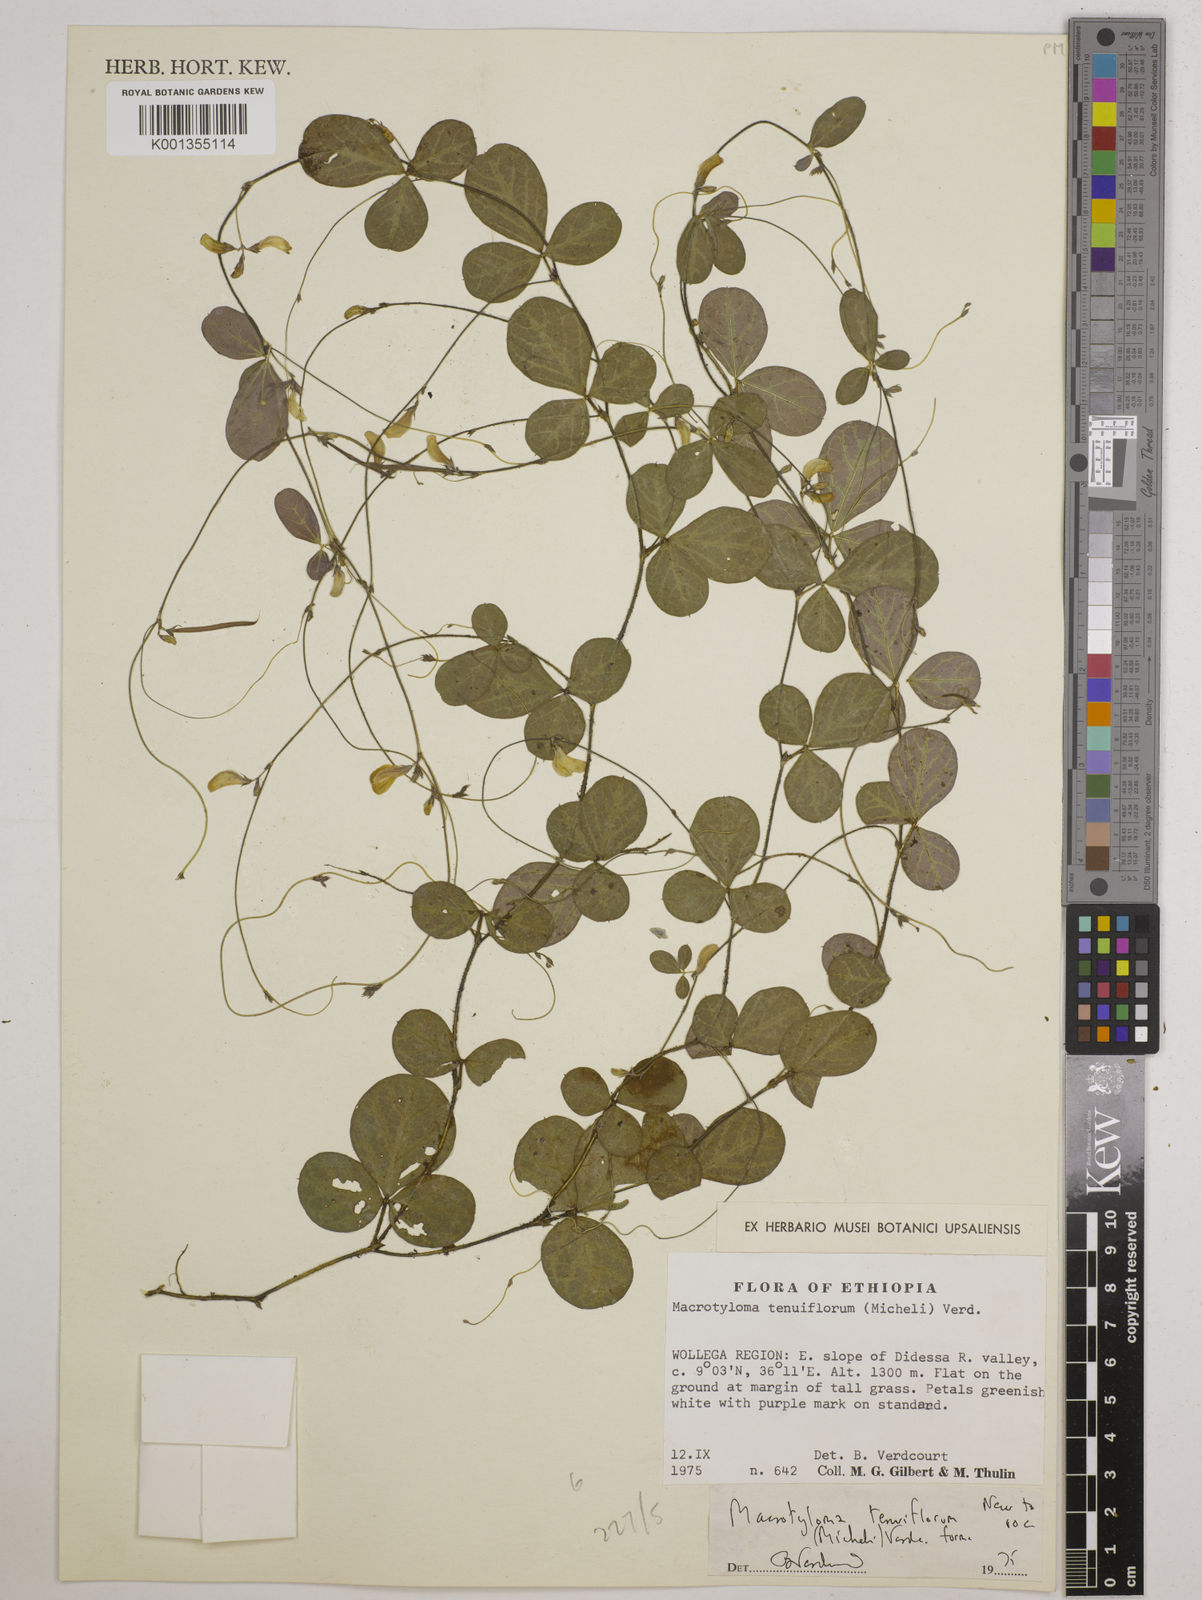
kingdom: Plantae
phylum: Tracheophyta
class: Magnoliopsida
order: Fabales
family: Fabaceae
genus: Macrotyloma
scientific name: Macrotyloma tenuiflorum
